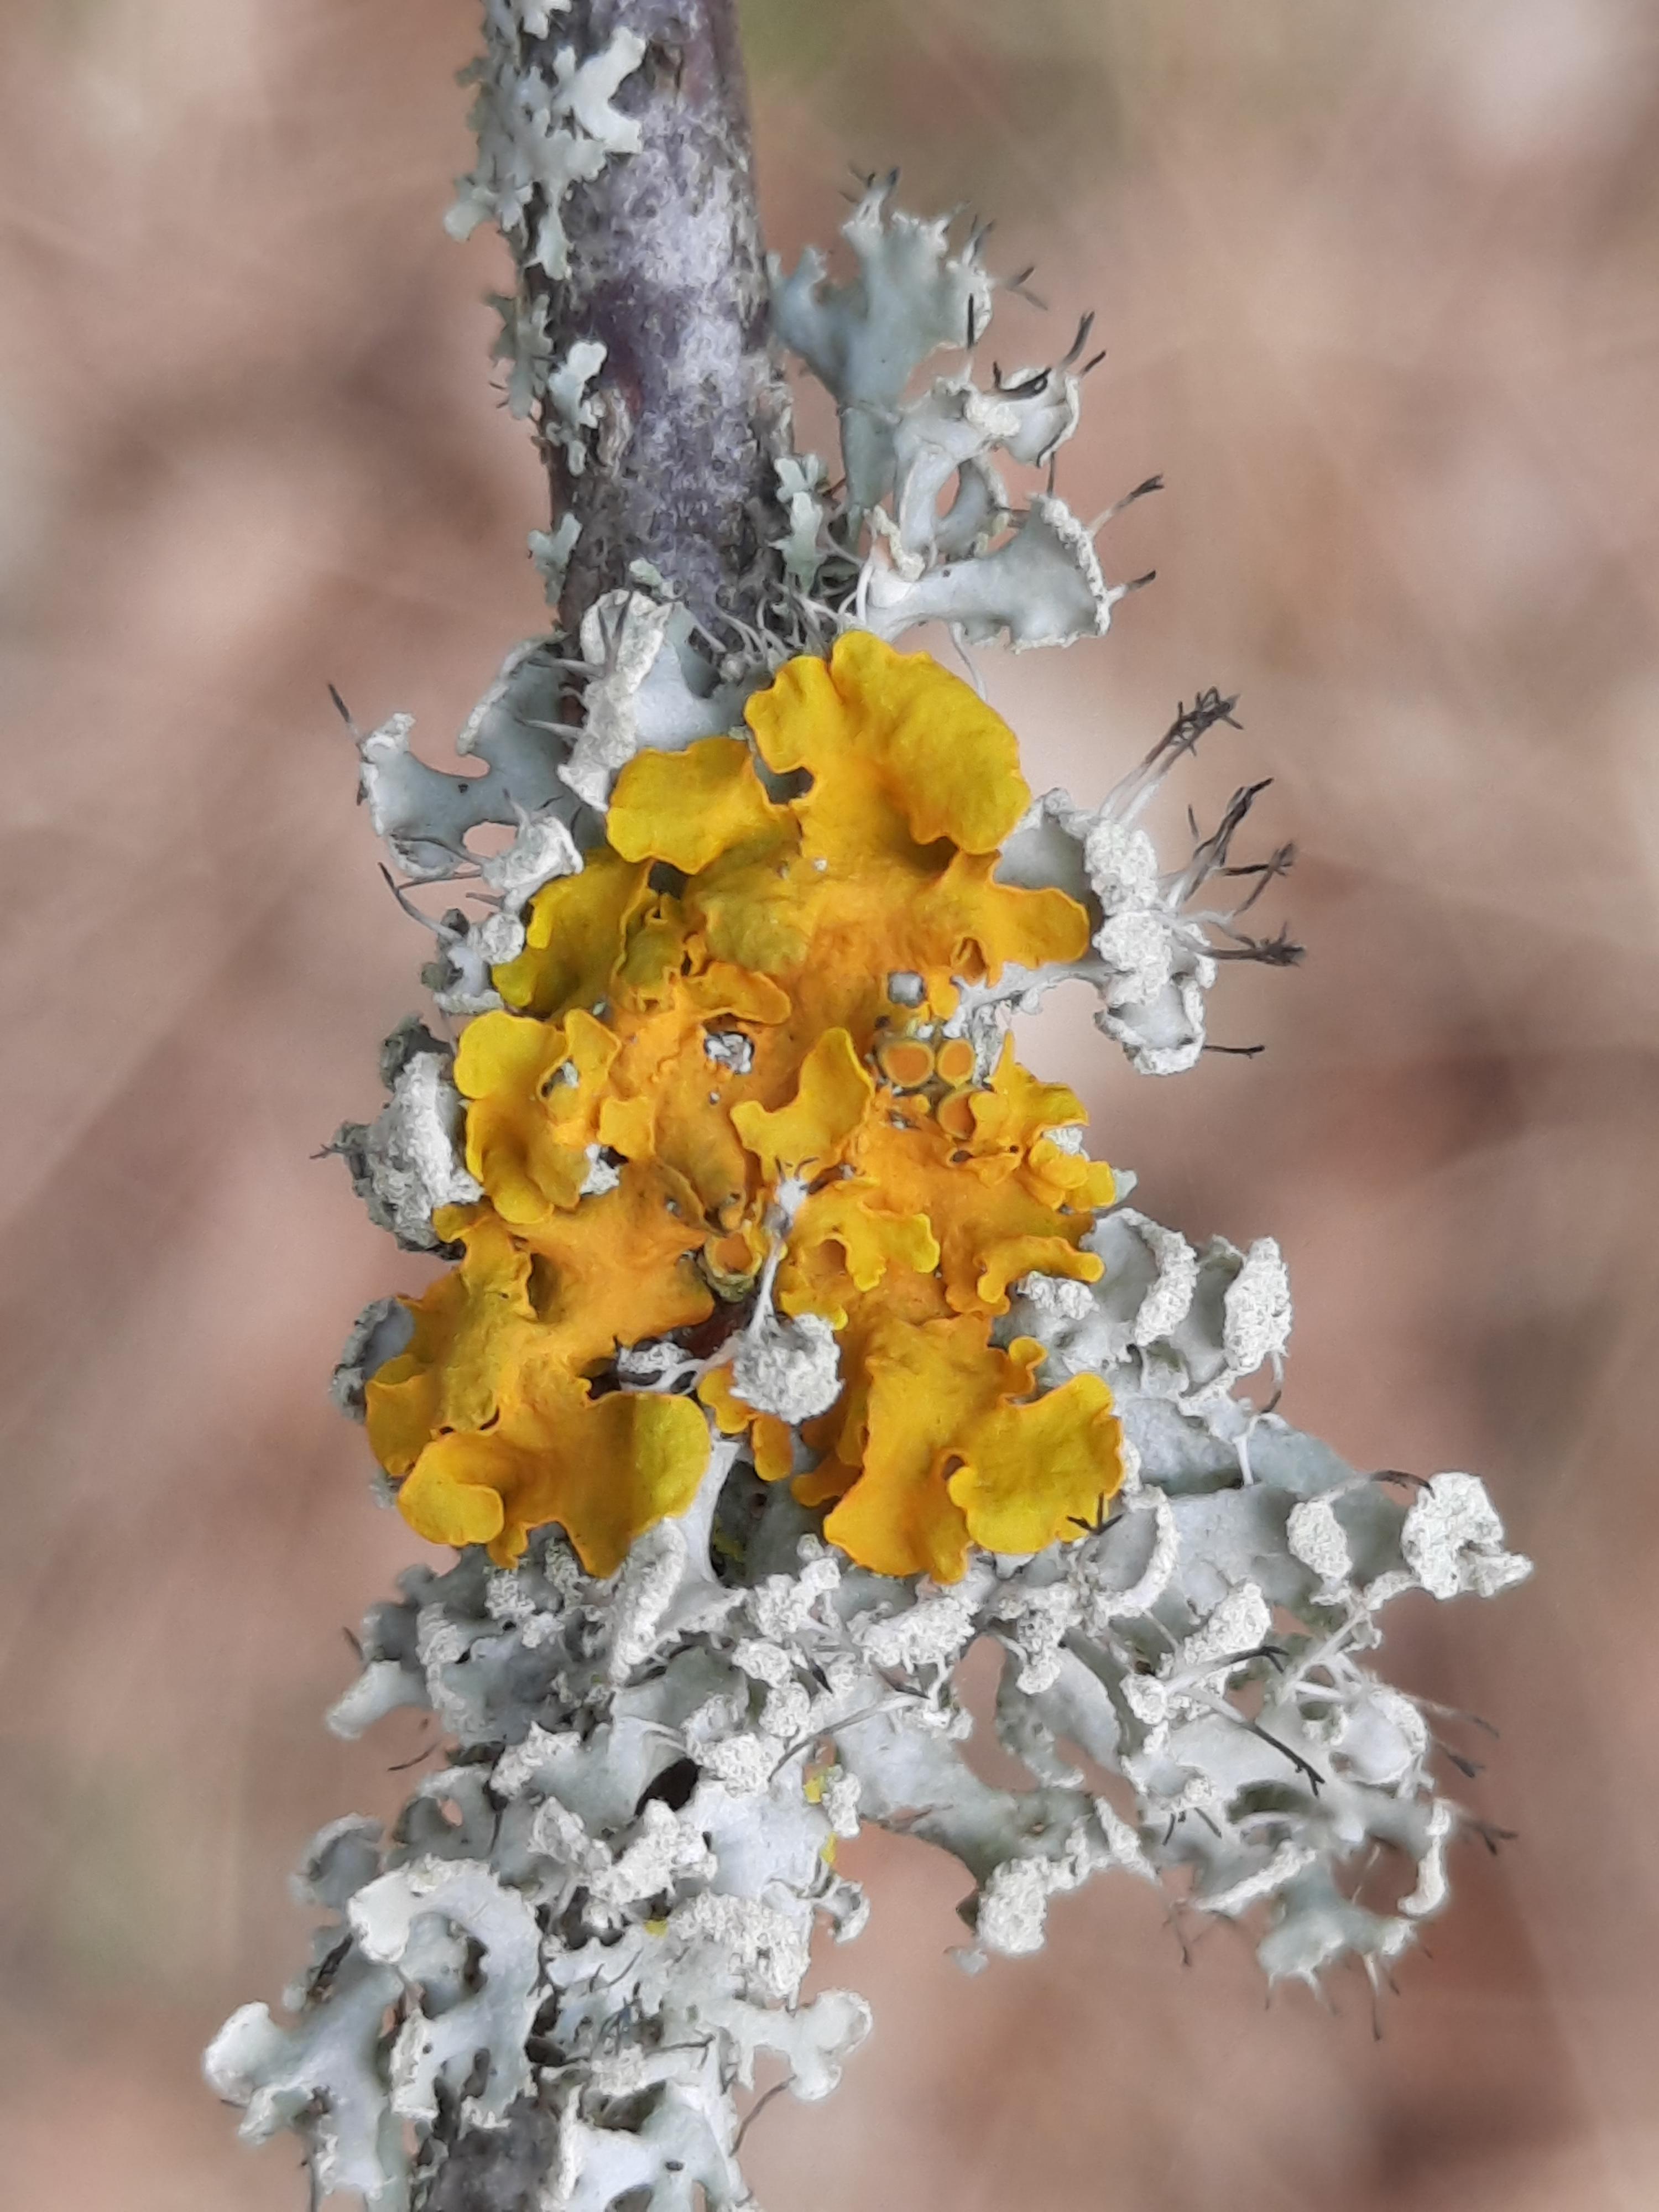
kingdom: Fungi
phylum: Ascomycota
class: Lecanoromycetes
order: Teloschistales
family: Teloschistaceae
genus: Xanthoria
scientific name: Xanthoria parietina
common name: almindelig væggelav
